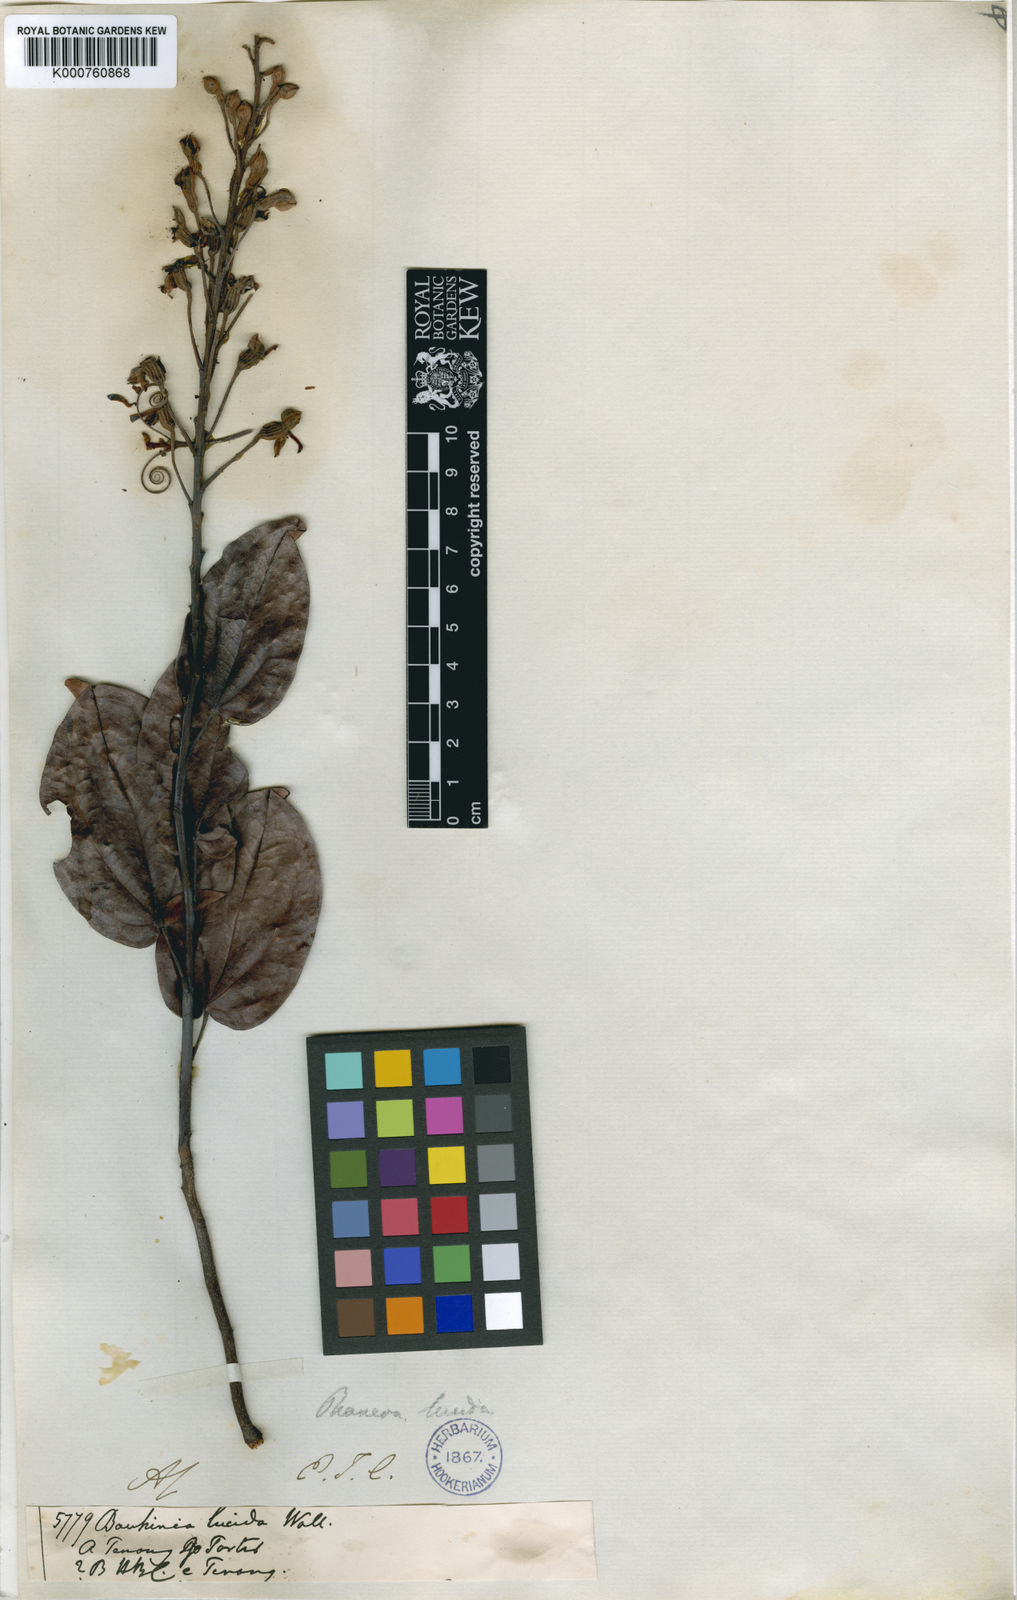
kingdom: Plantae
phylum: Tracheophyta
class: Magnoliopsida
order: Fabales
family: Fabaceae
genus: Phanera
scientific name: Phanera lucida
